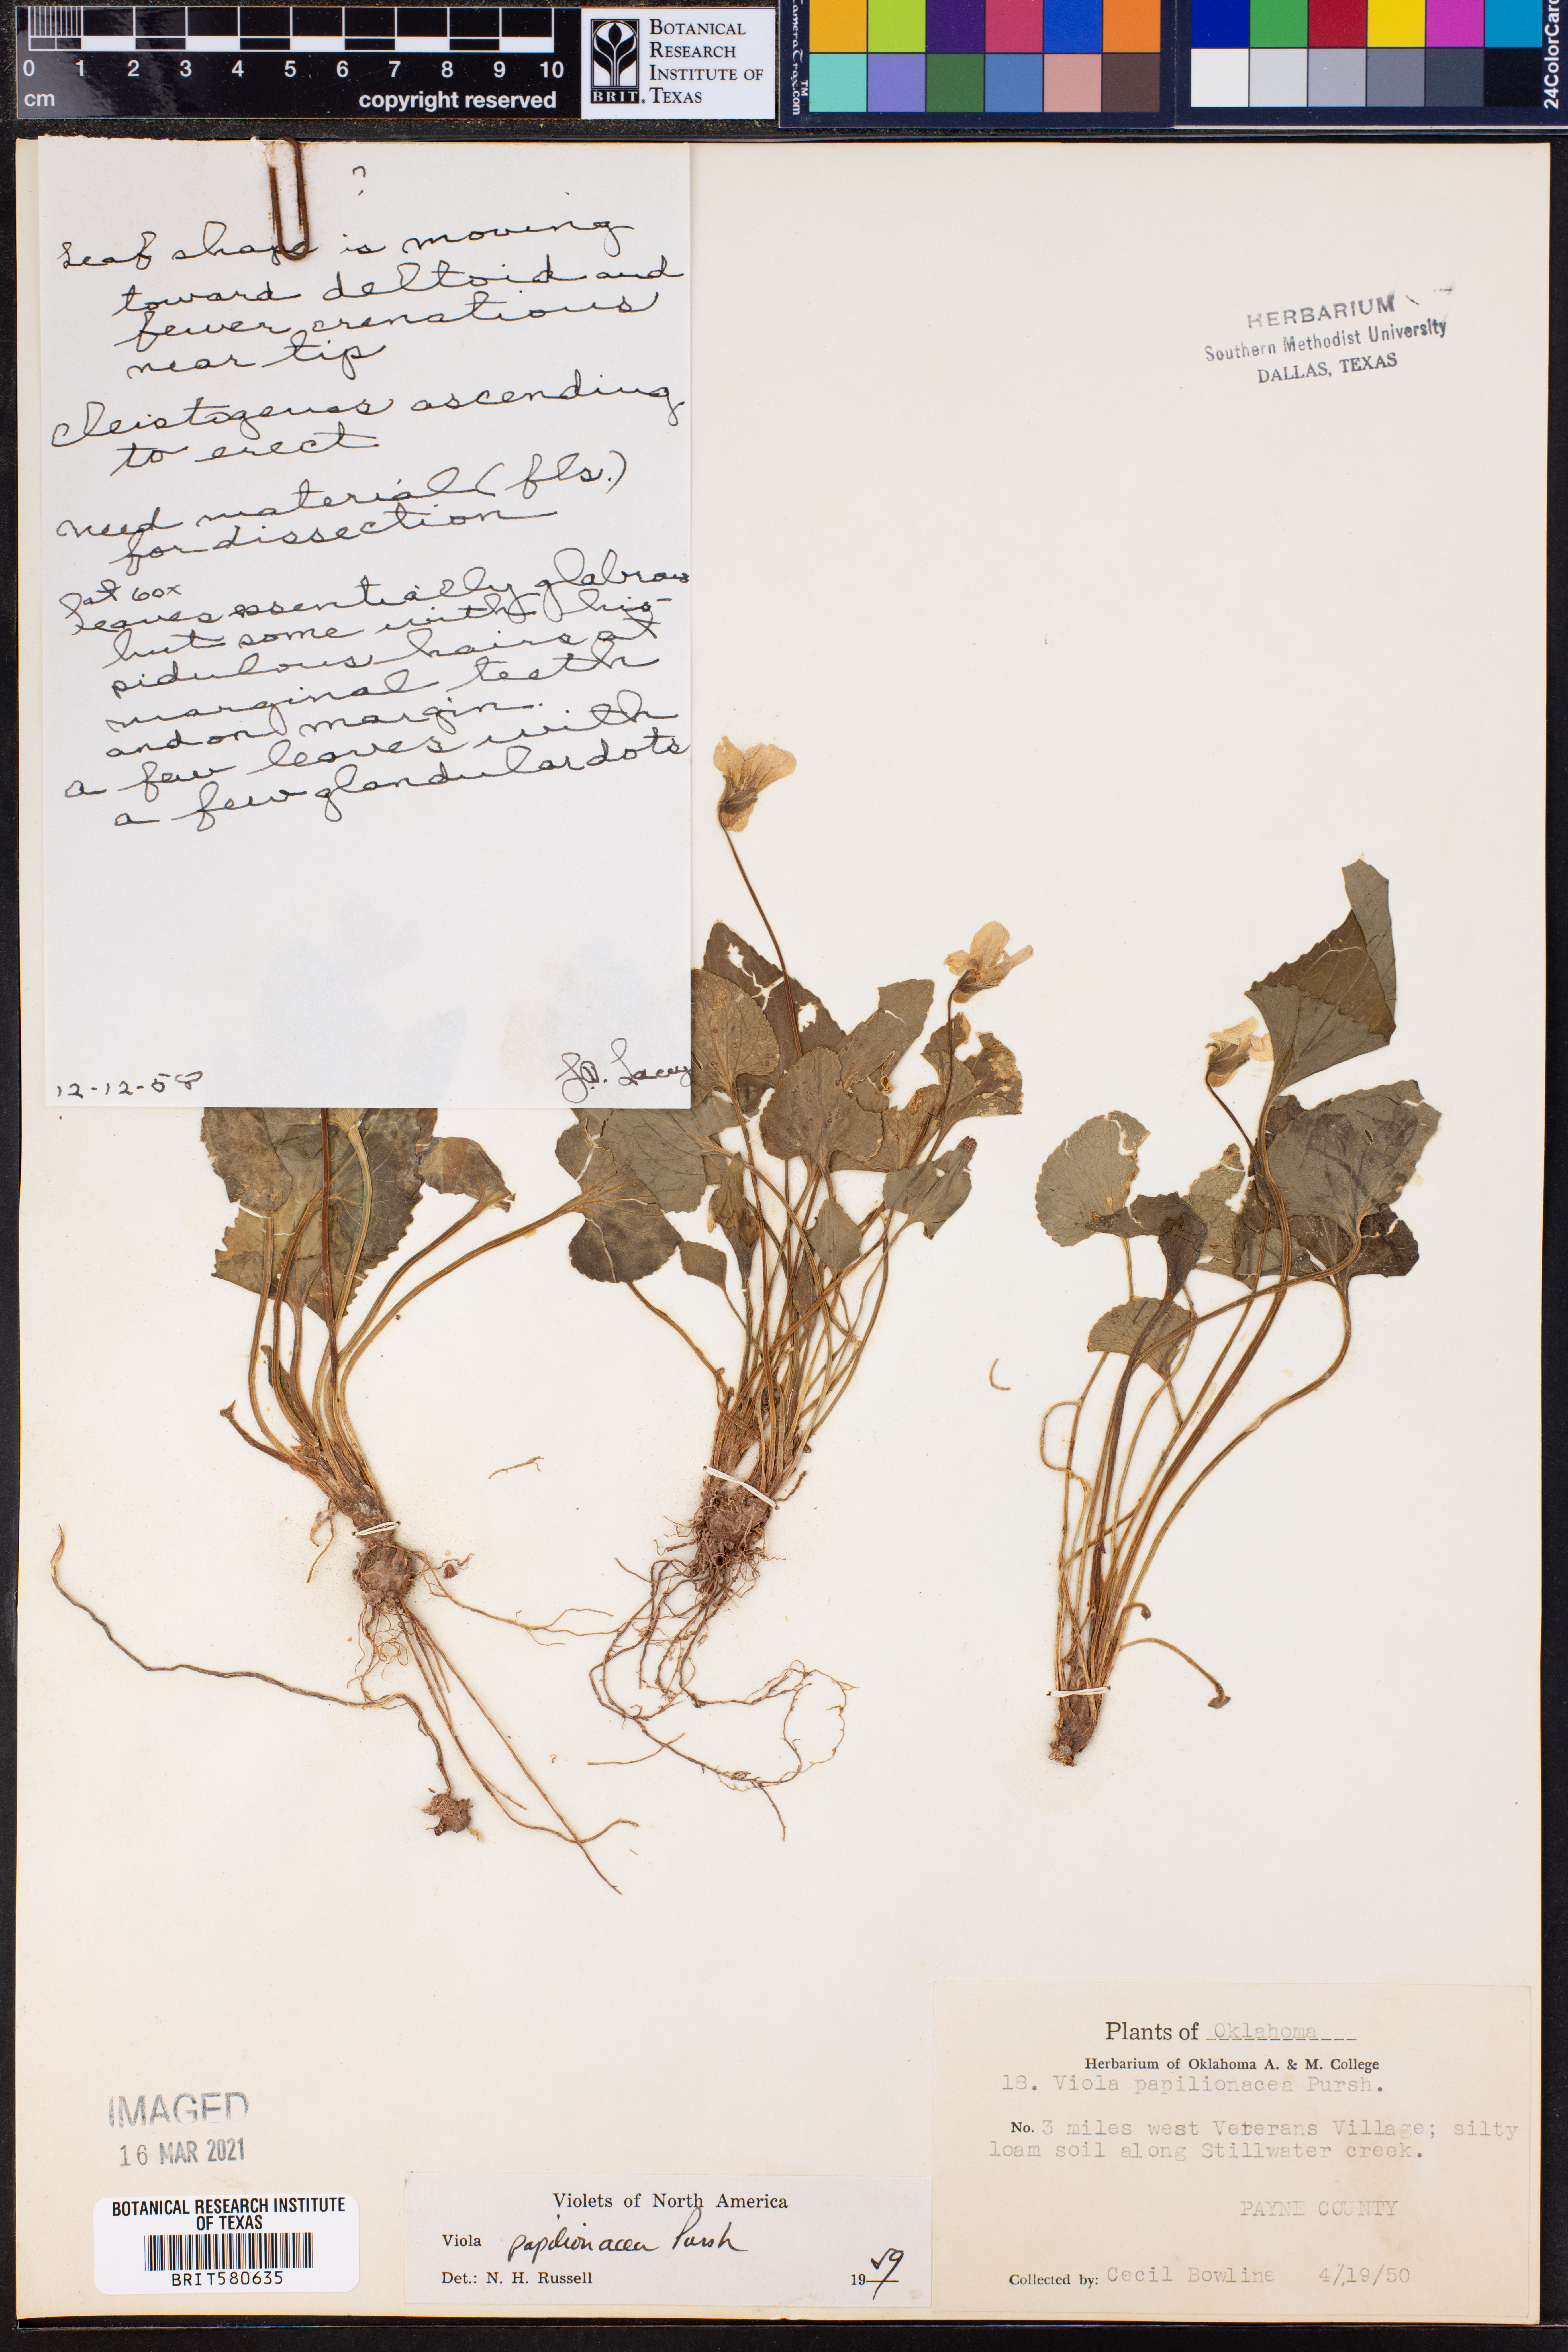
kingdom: Plantae
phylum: Tracheophyta
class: Magnoliopsida
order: Malpighiales
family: Violaceae
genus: Viola
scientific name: Viola sororia
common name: Dooryard violet
